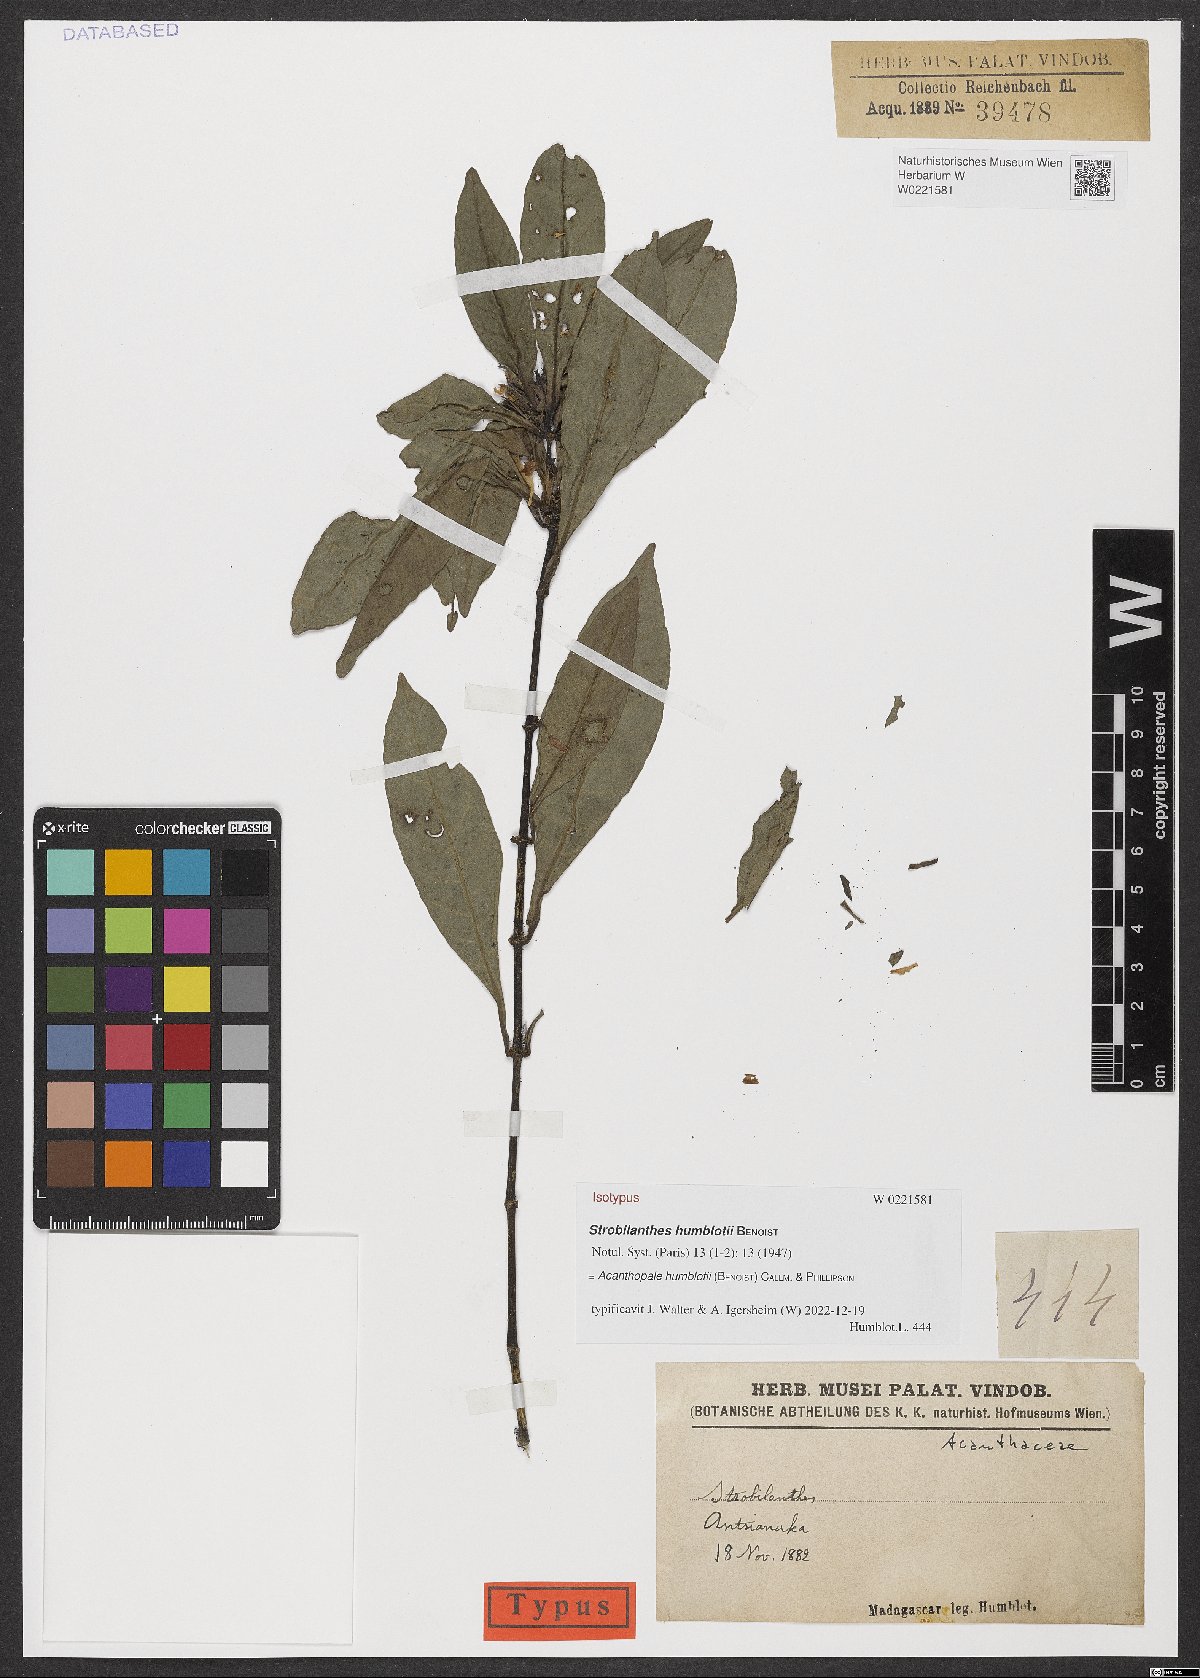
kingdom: Plantae
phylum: Tracheophyta
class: Magnoliopsida
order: Lamiales
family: Acanthaceae
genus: Acanthopale
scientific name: Acanthopale humblotii
